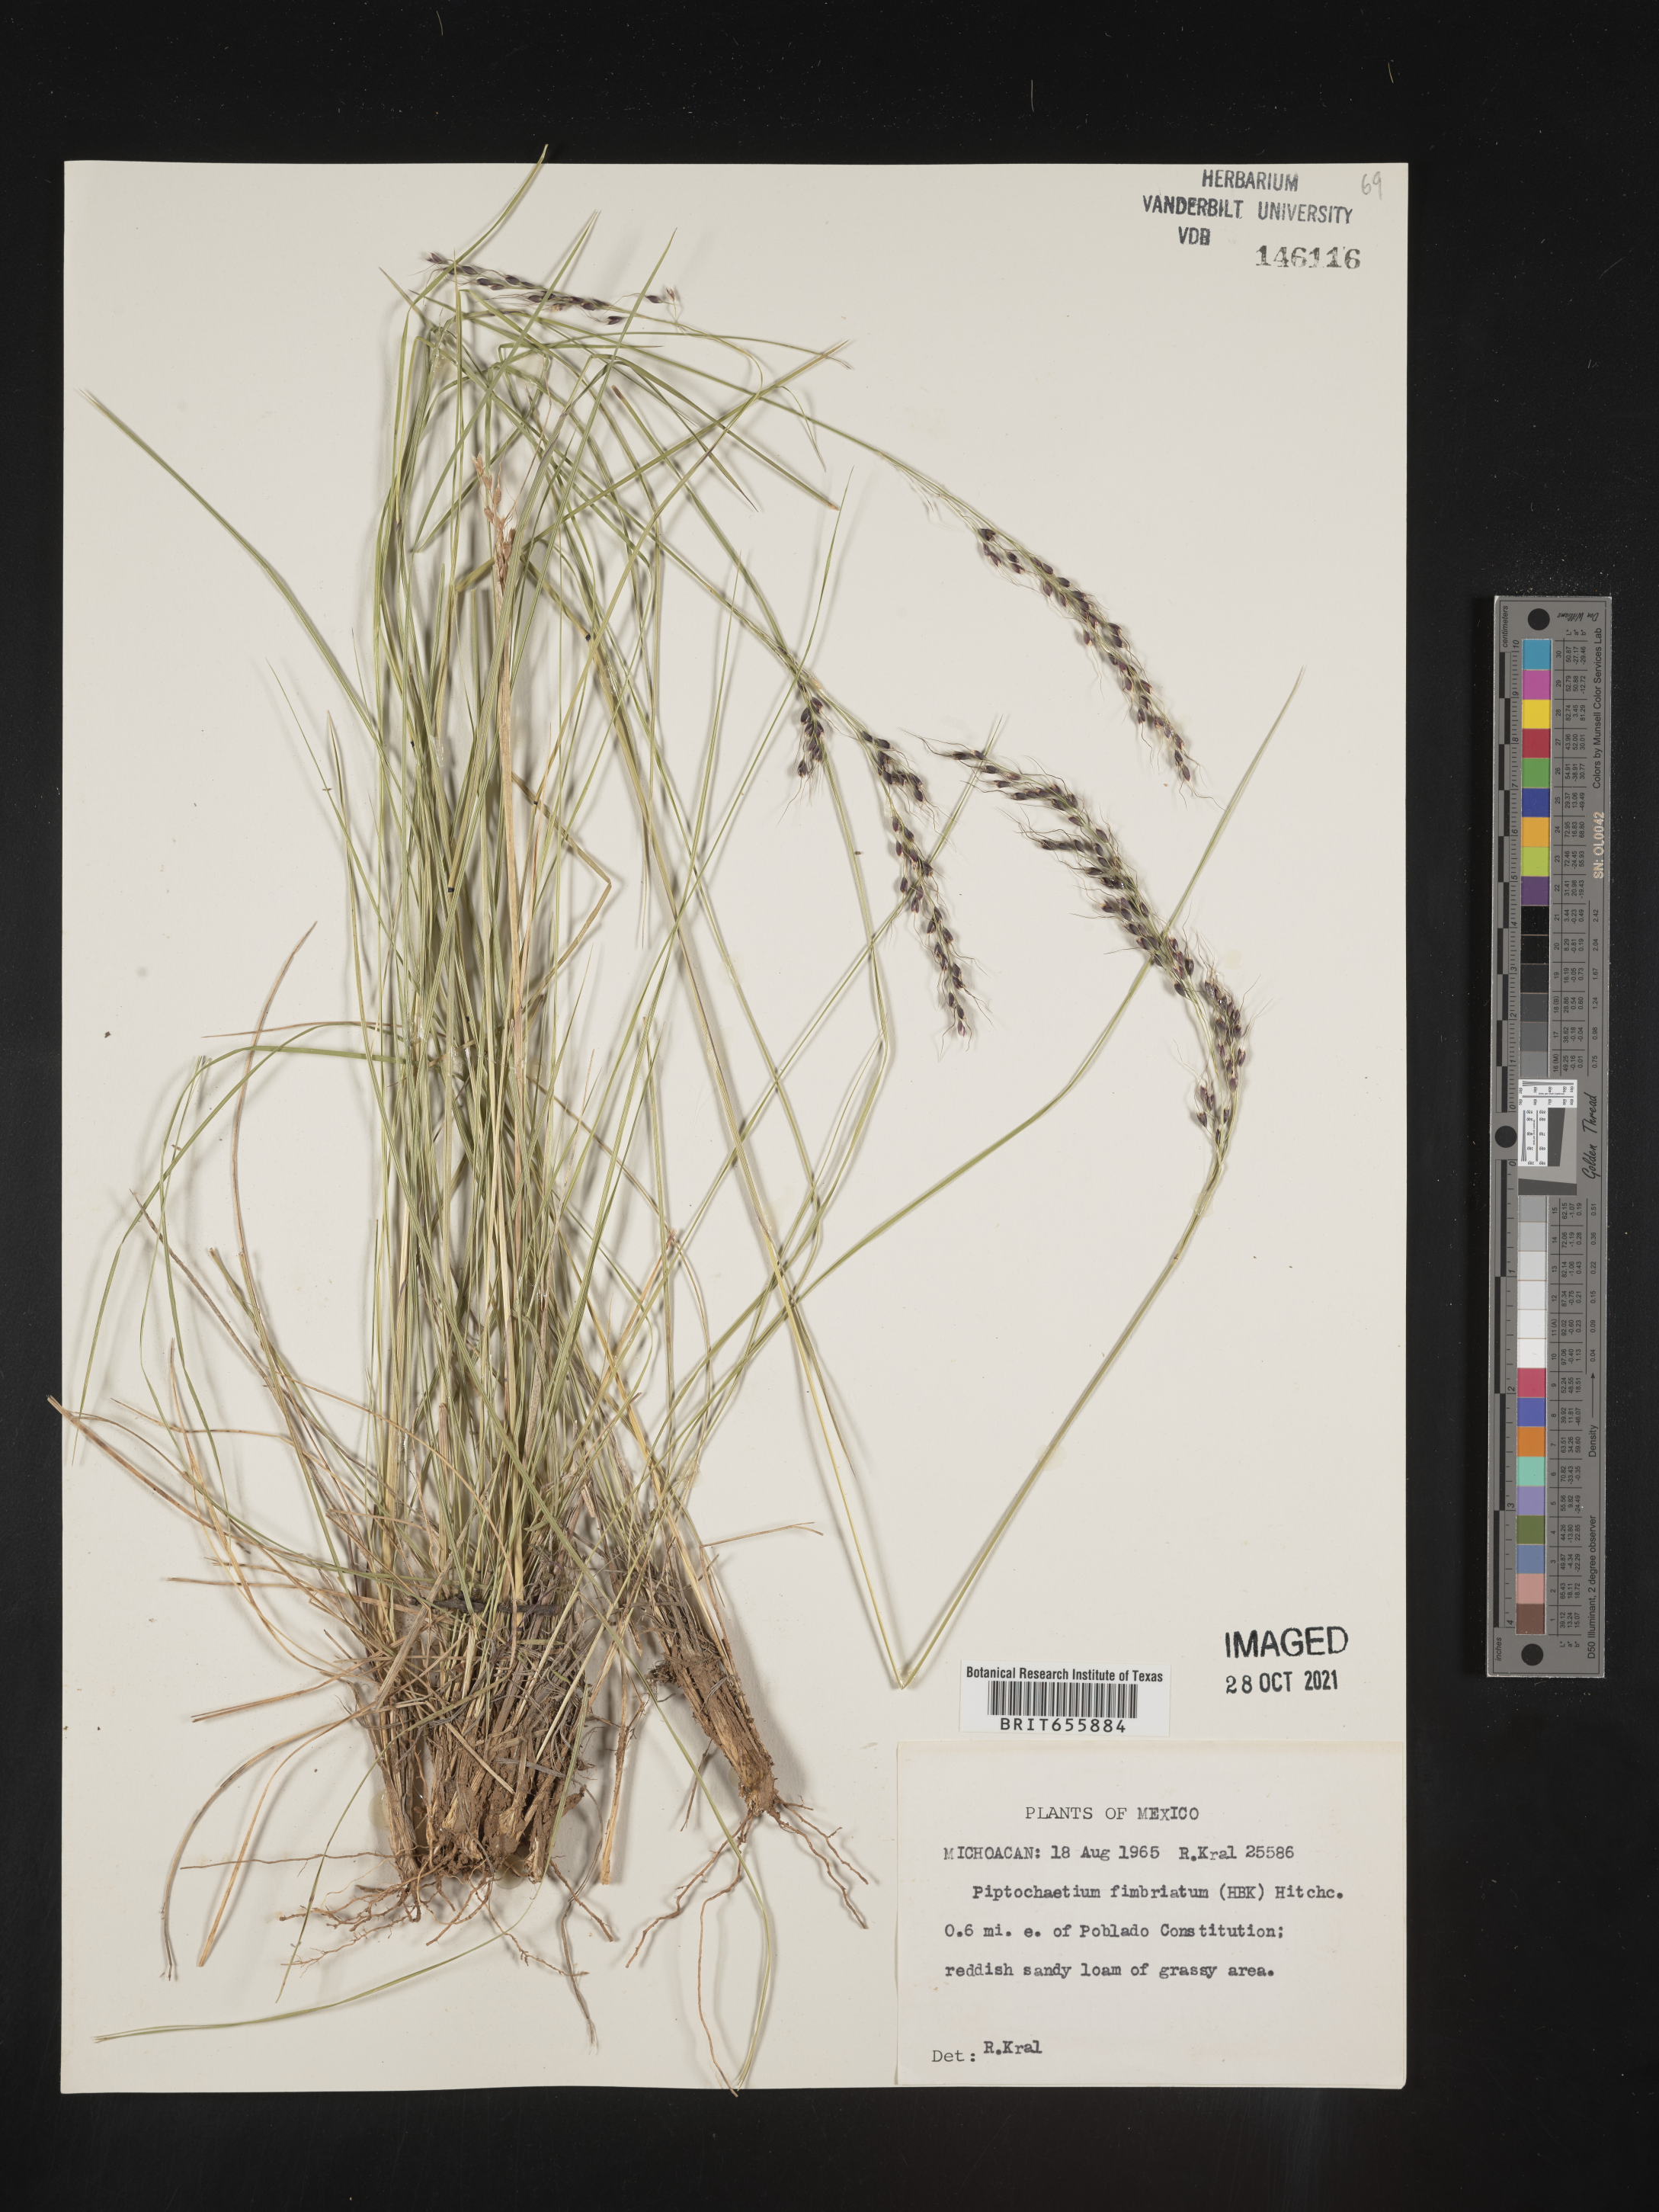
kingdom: Plantae
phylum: Tracheophyta
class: Liliopsida
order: Poales
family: Poaceae
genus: Piptochaetium
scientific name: Piptochaetium
